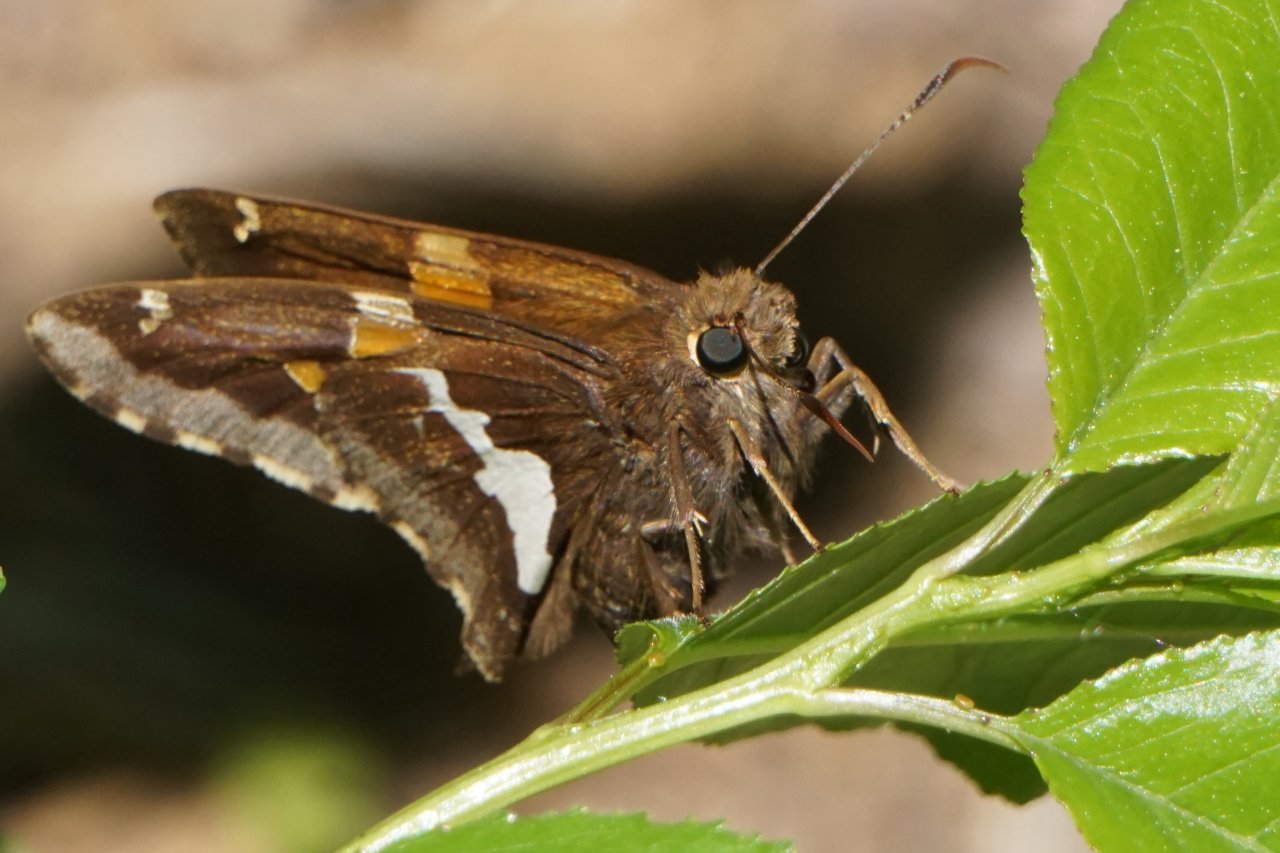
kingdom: Animalia
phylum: Arthropoda
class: Insecta
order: Lepidoptera
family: Hesperiidae
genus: Epargyreus
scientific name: Epargyreus clarus
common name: Silver-spotted Skipper
